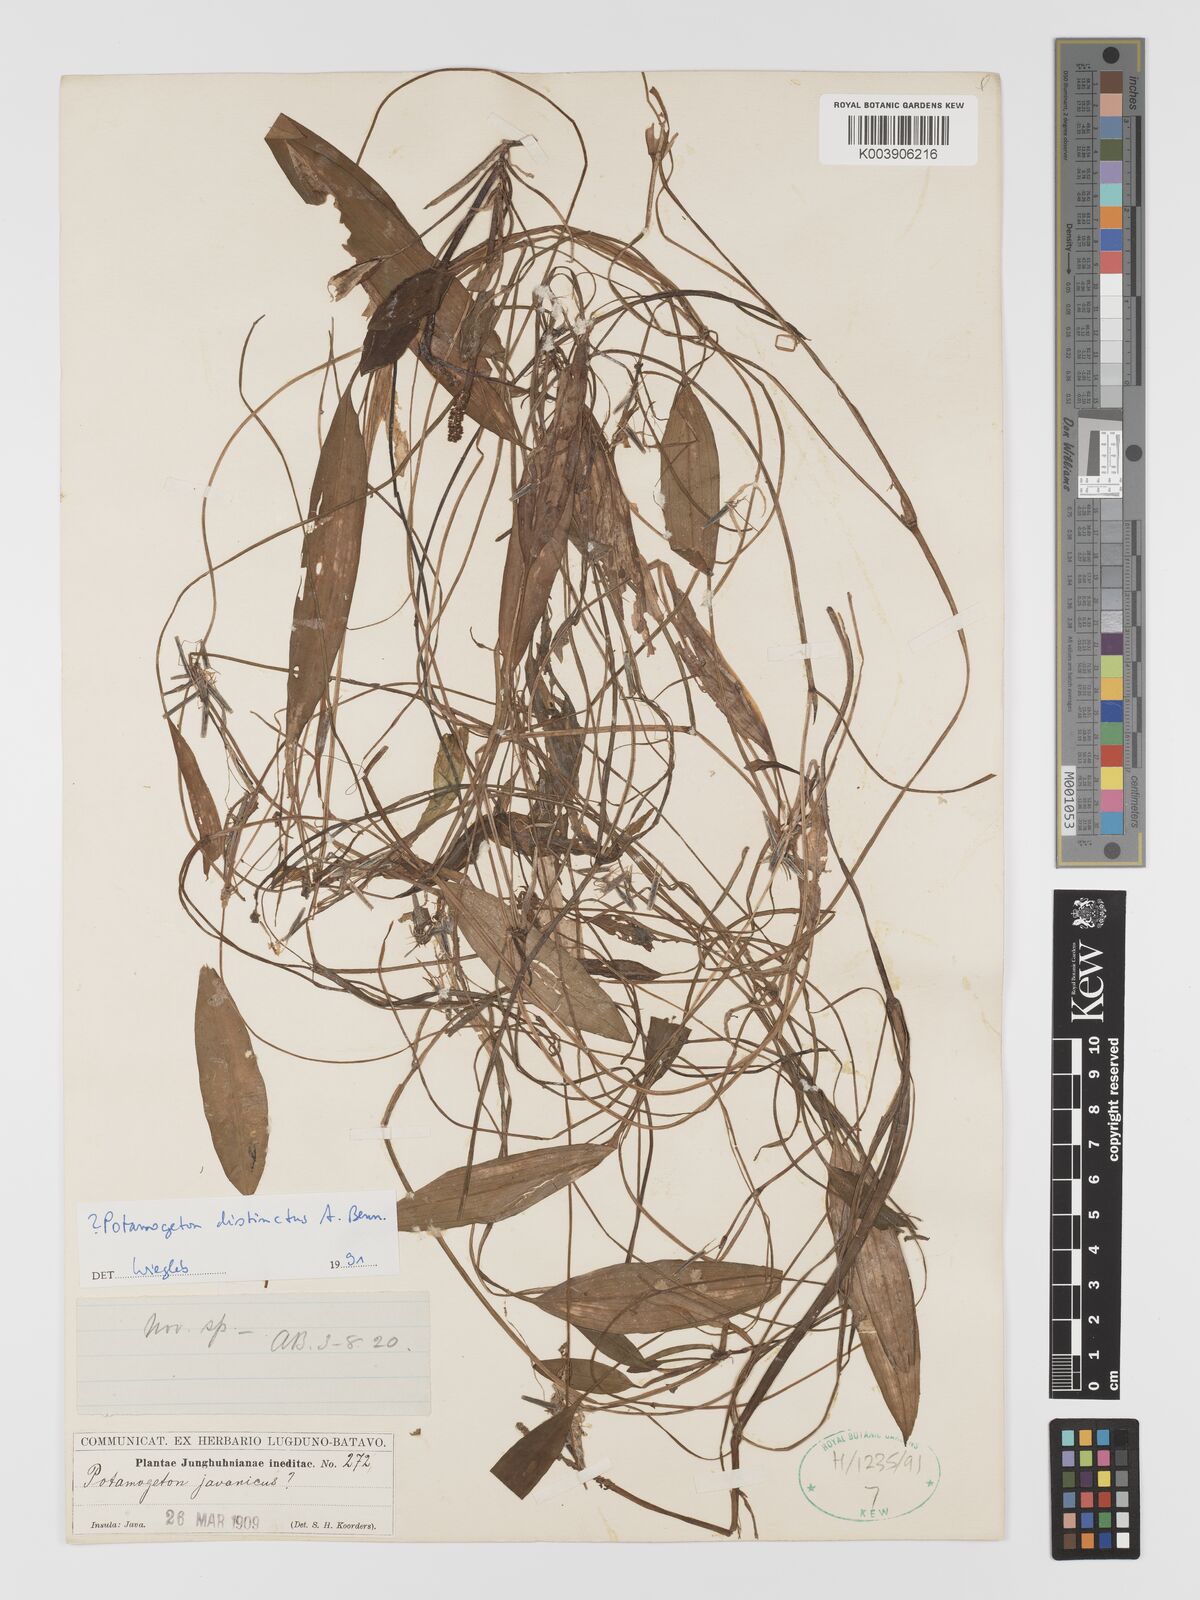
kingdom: Plantae
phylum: Tracheophyta
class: Liliopsida
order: Alismatales
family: Potamogetonaceae
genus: Potamogeton
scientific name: Potamogeton distinctus
